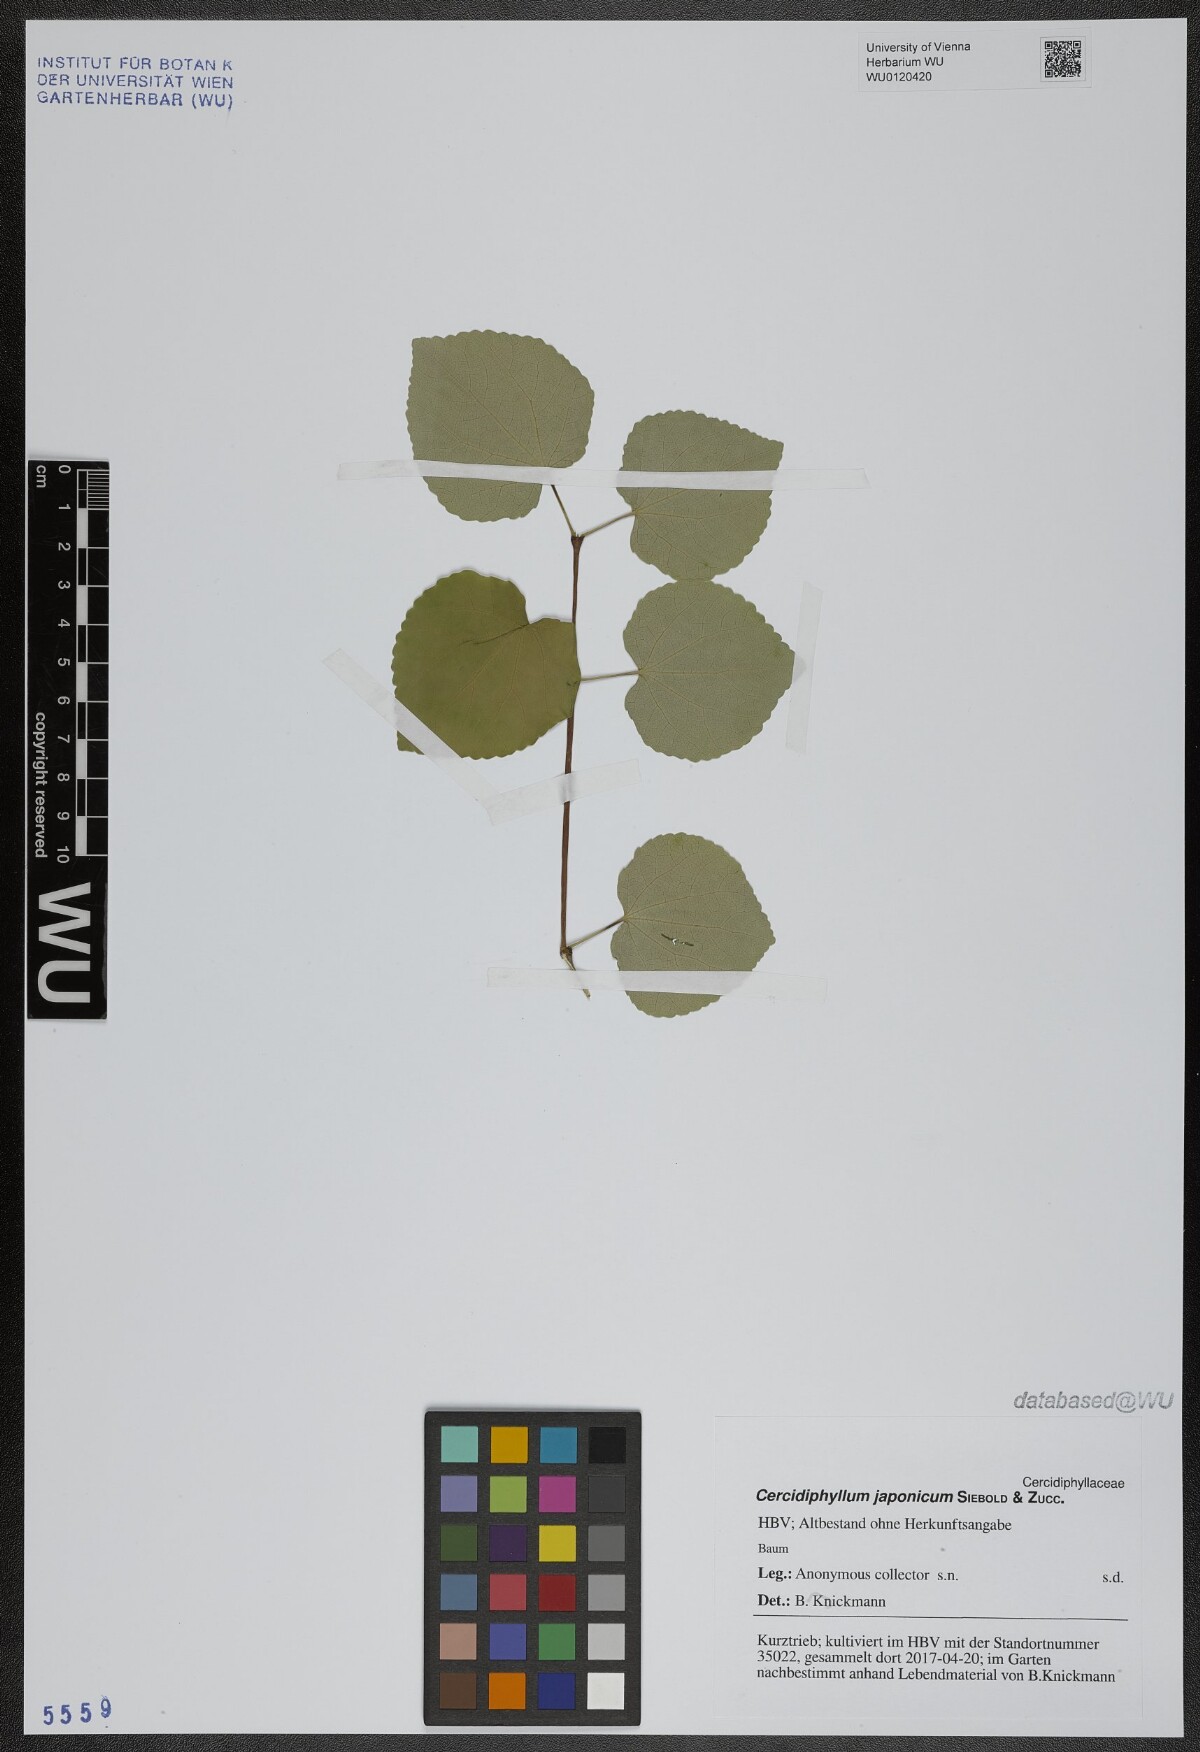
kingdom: Plantae
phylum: Tracheophyta
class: Magnoliopsida
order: Saxifragales
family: Cercidiphyllaceae
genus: Cercidiphyllum
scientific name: Cercidiphyllum japonicum
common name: Katsura tree
